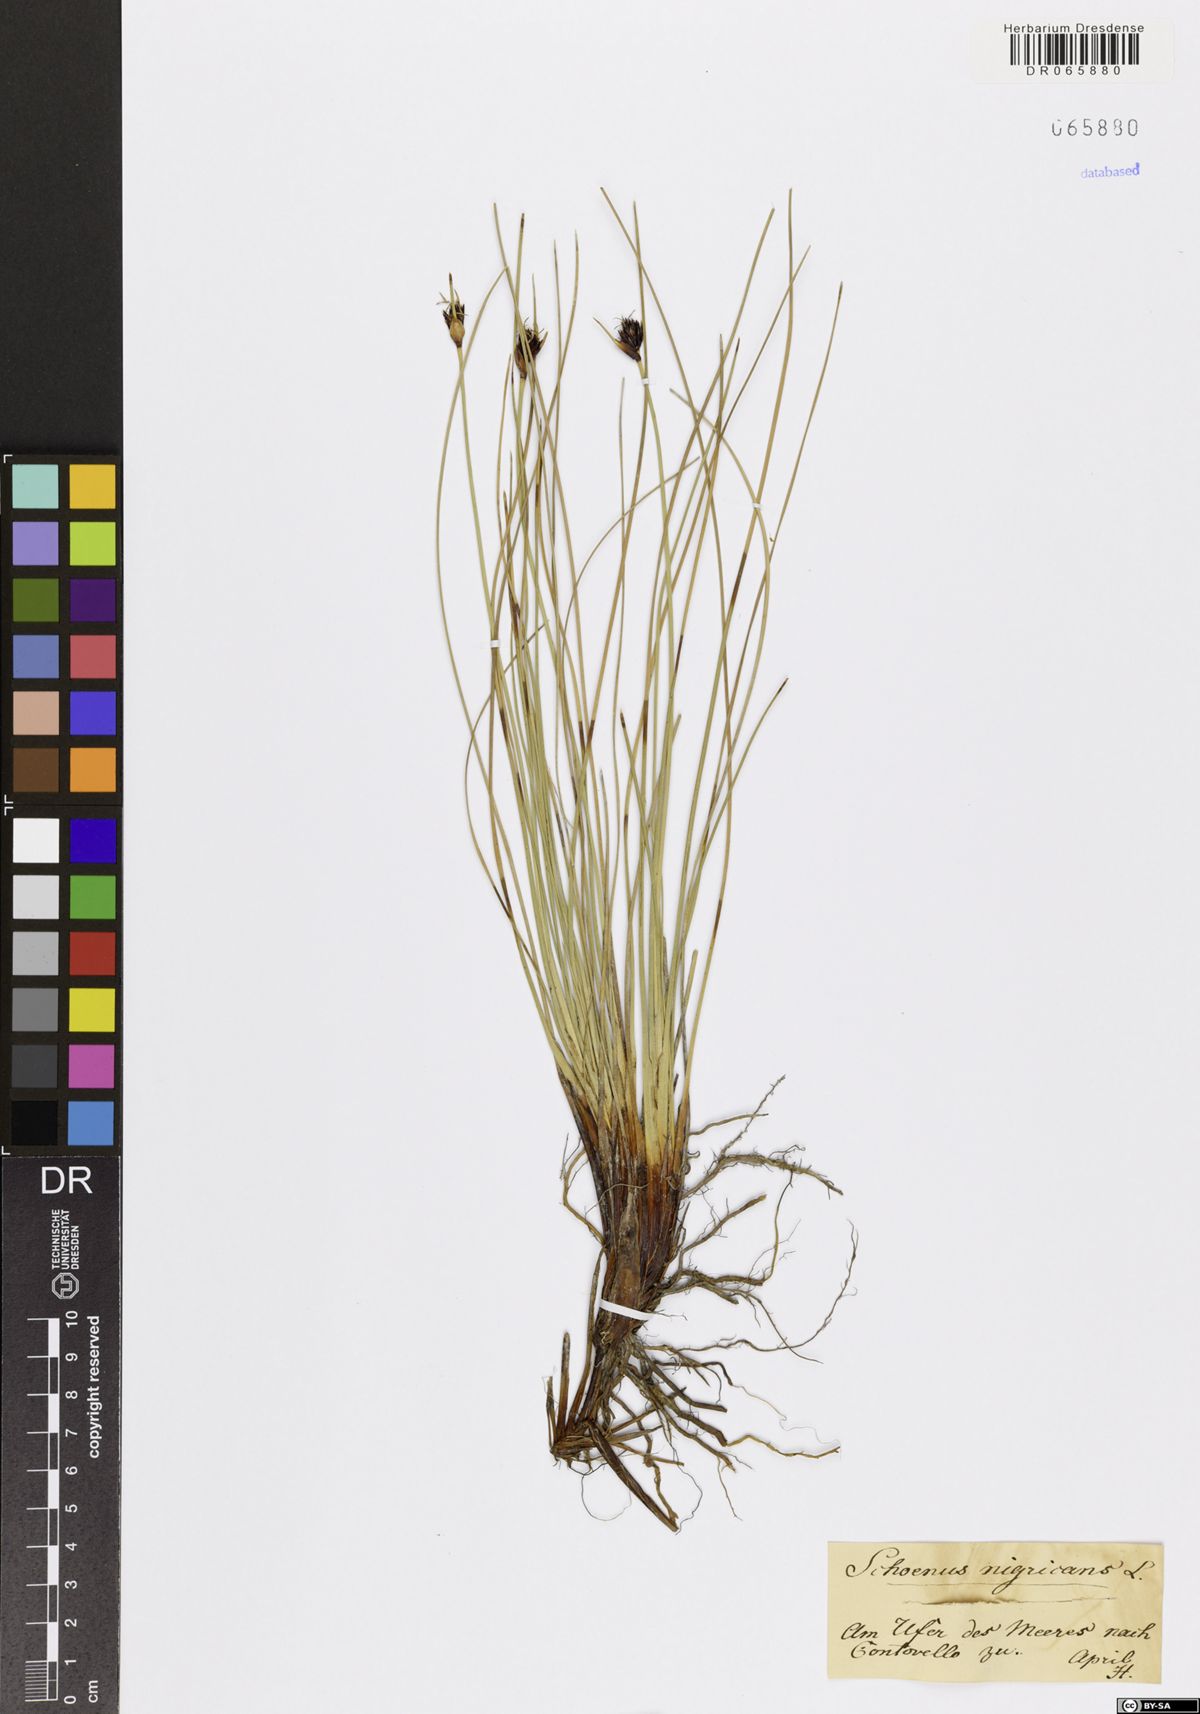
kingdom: Plantae
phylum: Tracheophyta
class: Liliopsida
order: Poales
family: Cyperaceae
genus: Schoenus
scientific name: Schoenus nigricans
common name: Black bog-rush
